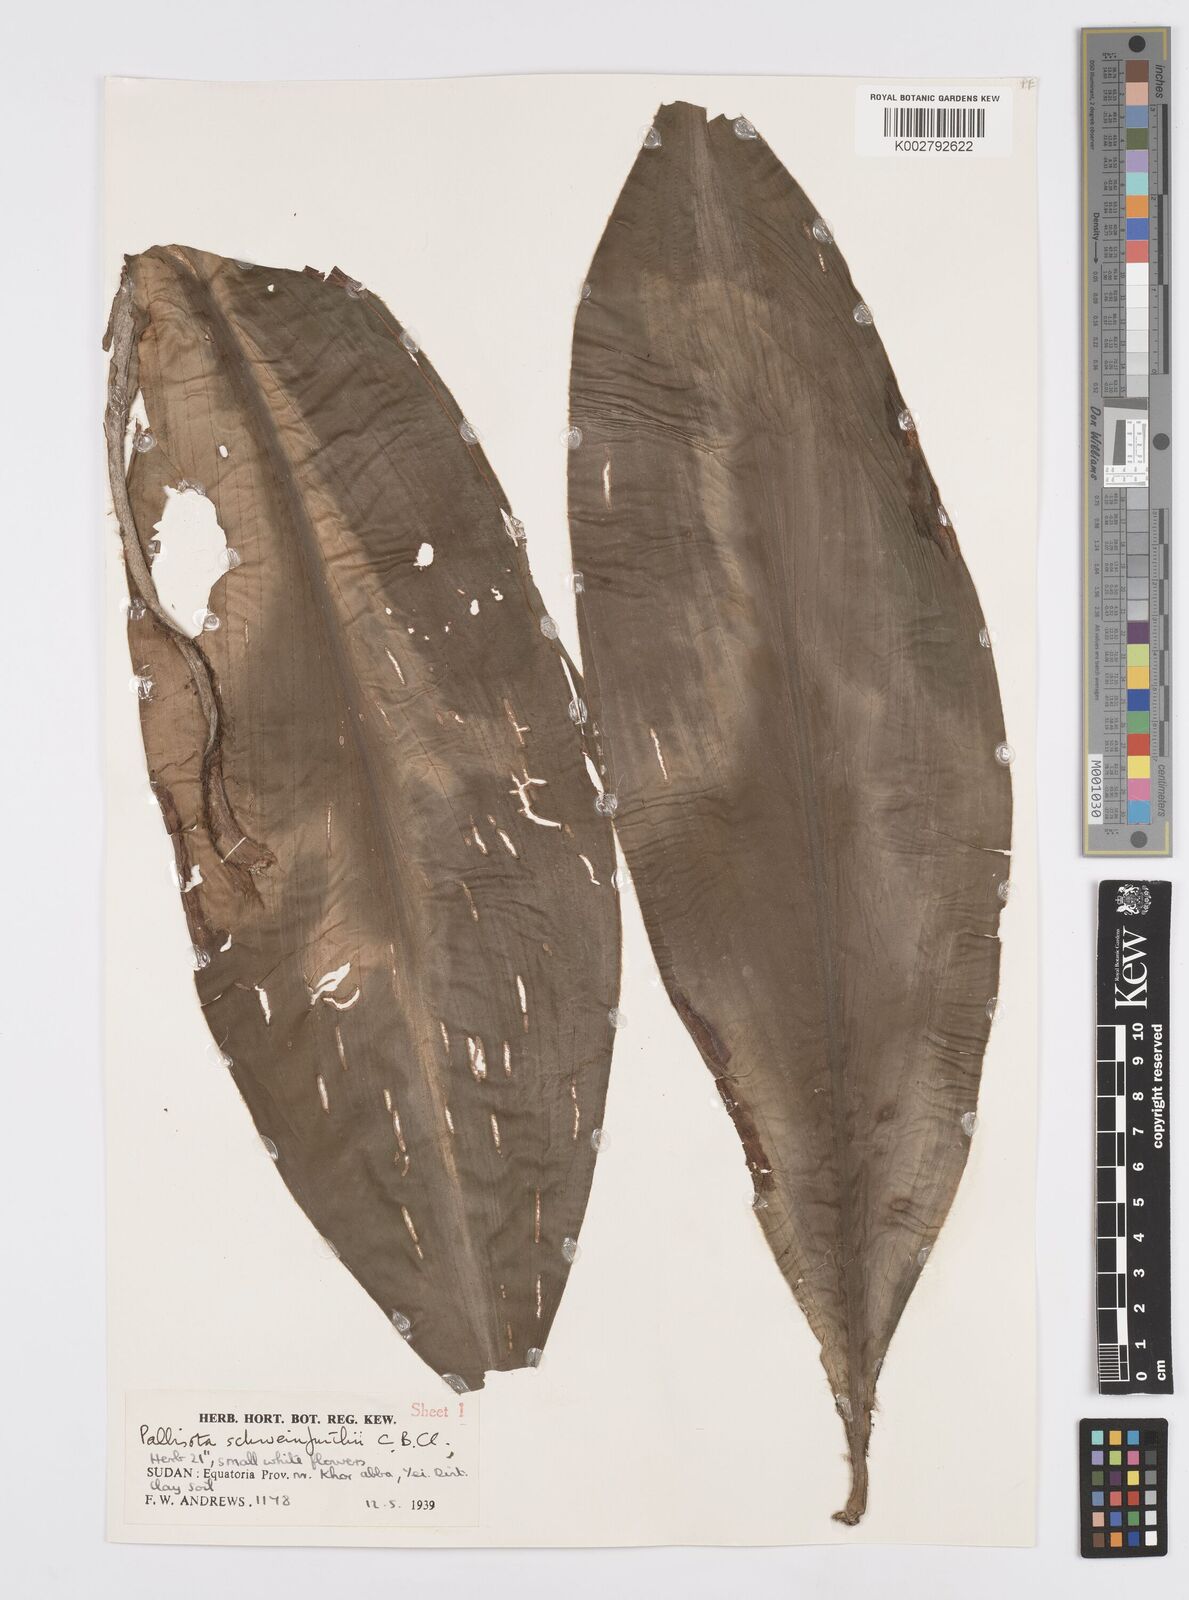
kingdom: Plantae
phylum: Tracheophyta
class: Liliopsida
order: Commelinales
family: Commelinaceae
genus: Palisota
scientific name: Palisota schweinfurthii
